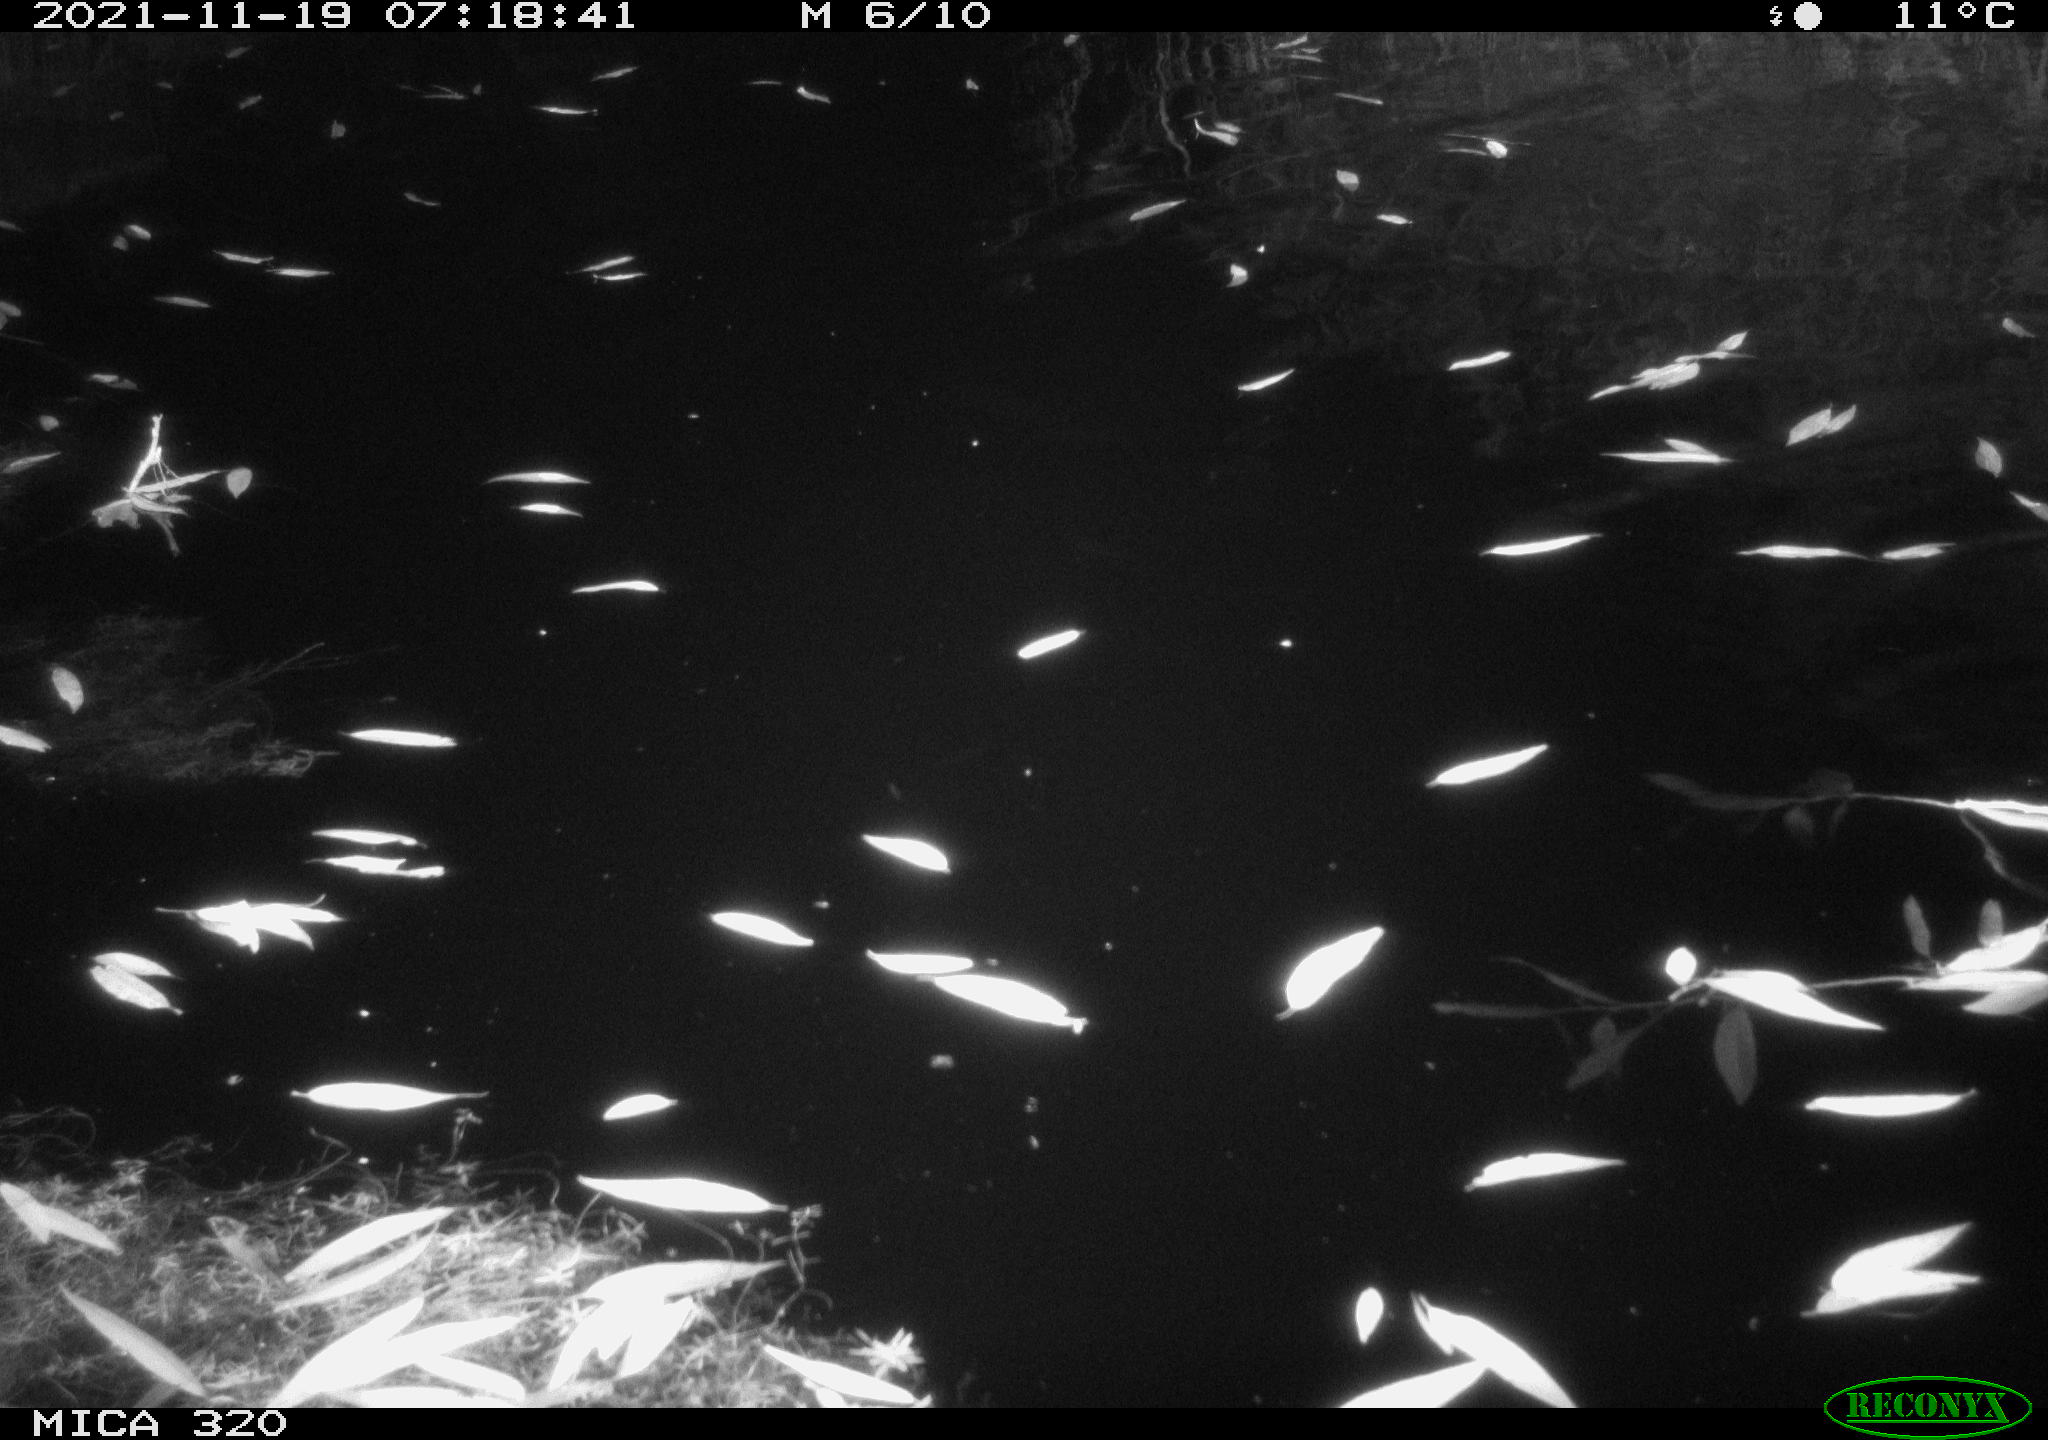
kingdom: Animalia
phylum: Chordata
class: Aves
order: Anseriformes
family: Anatidae
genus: Anas
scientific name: Anas platyrhynchos
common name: Mallard
